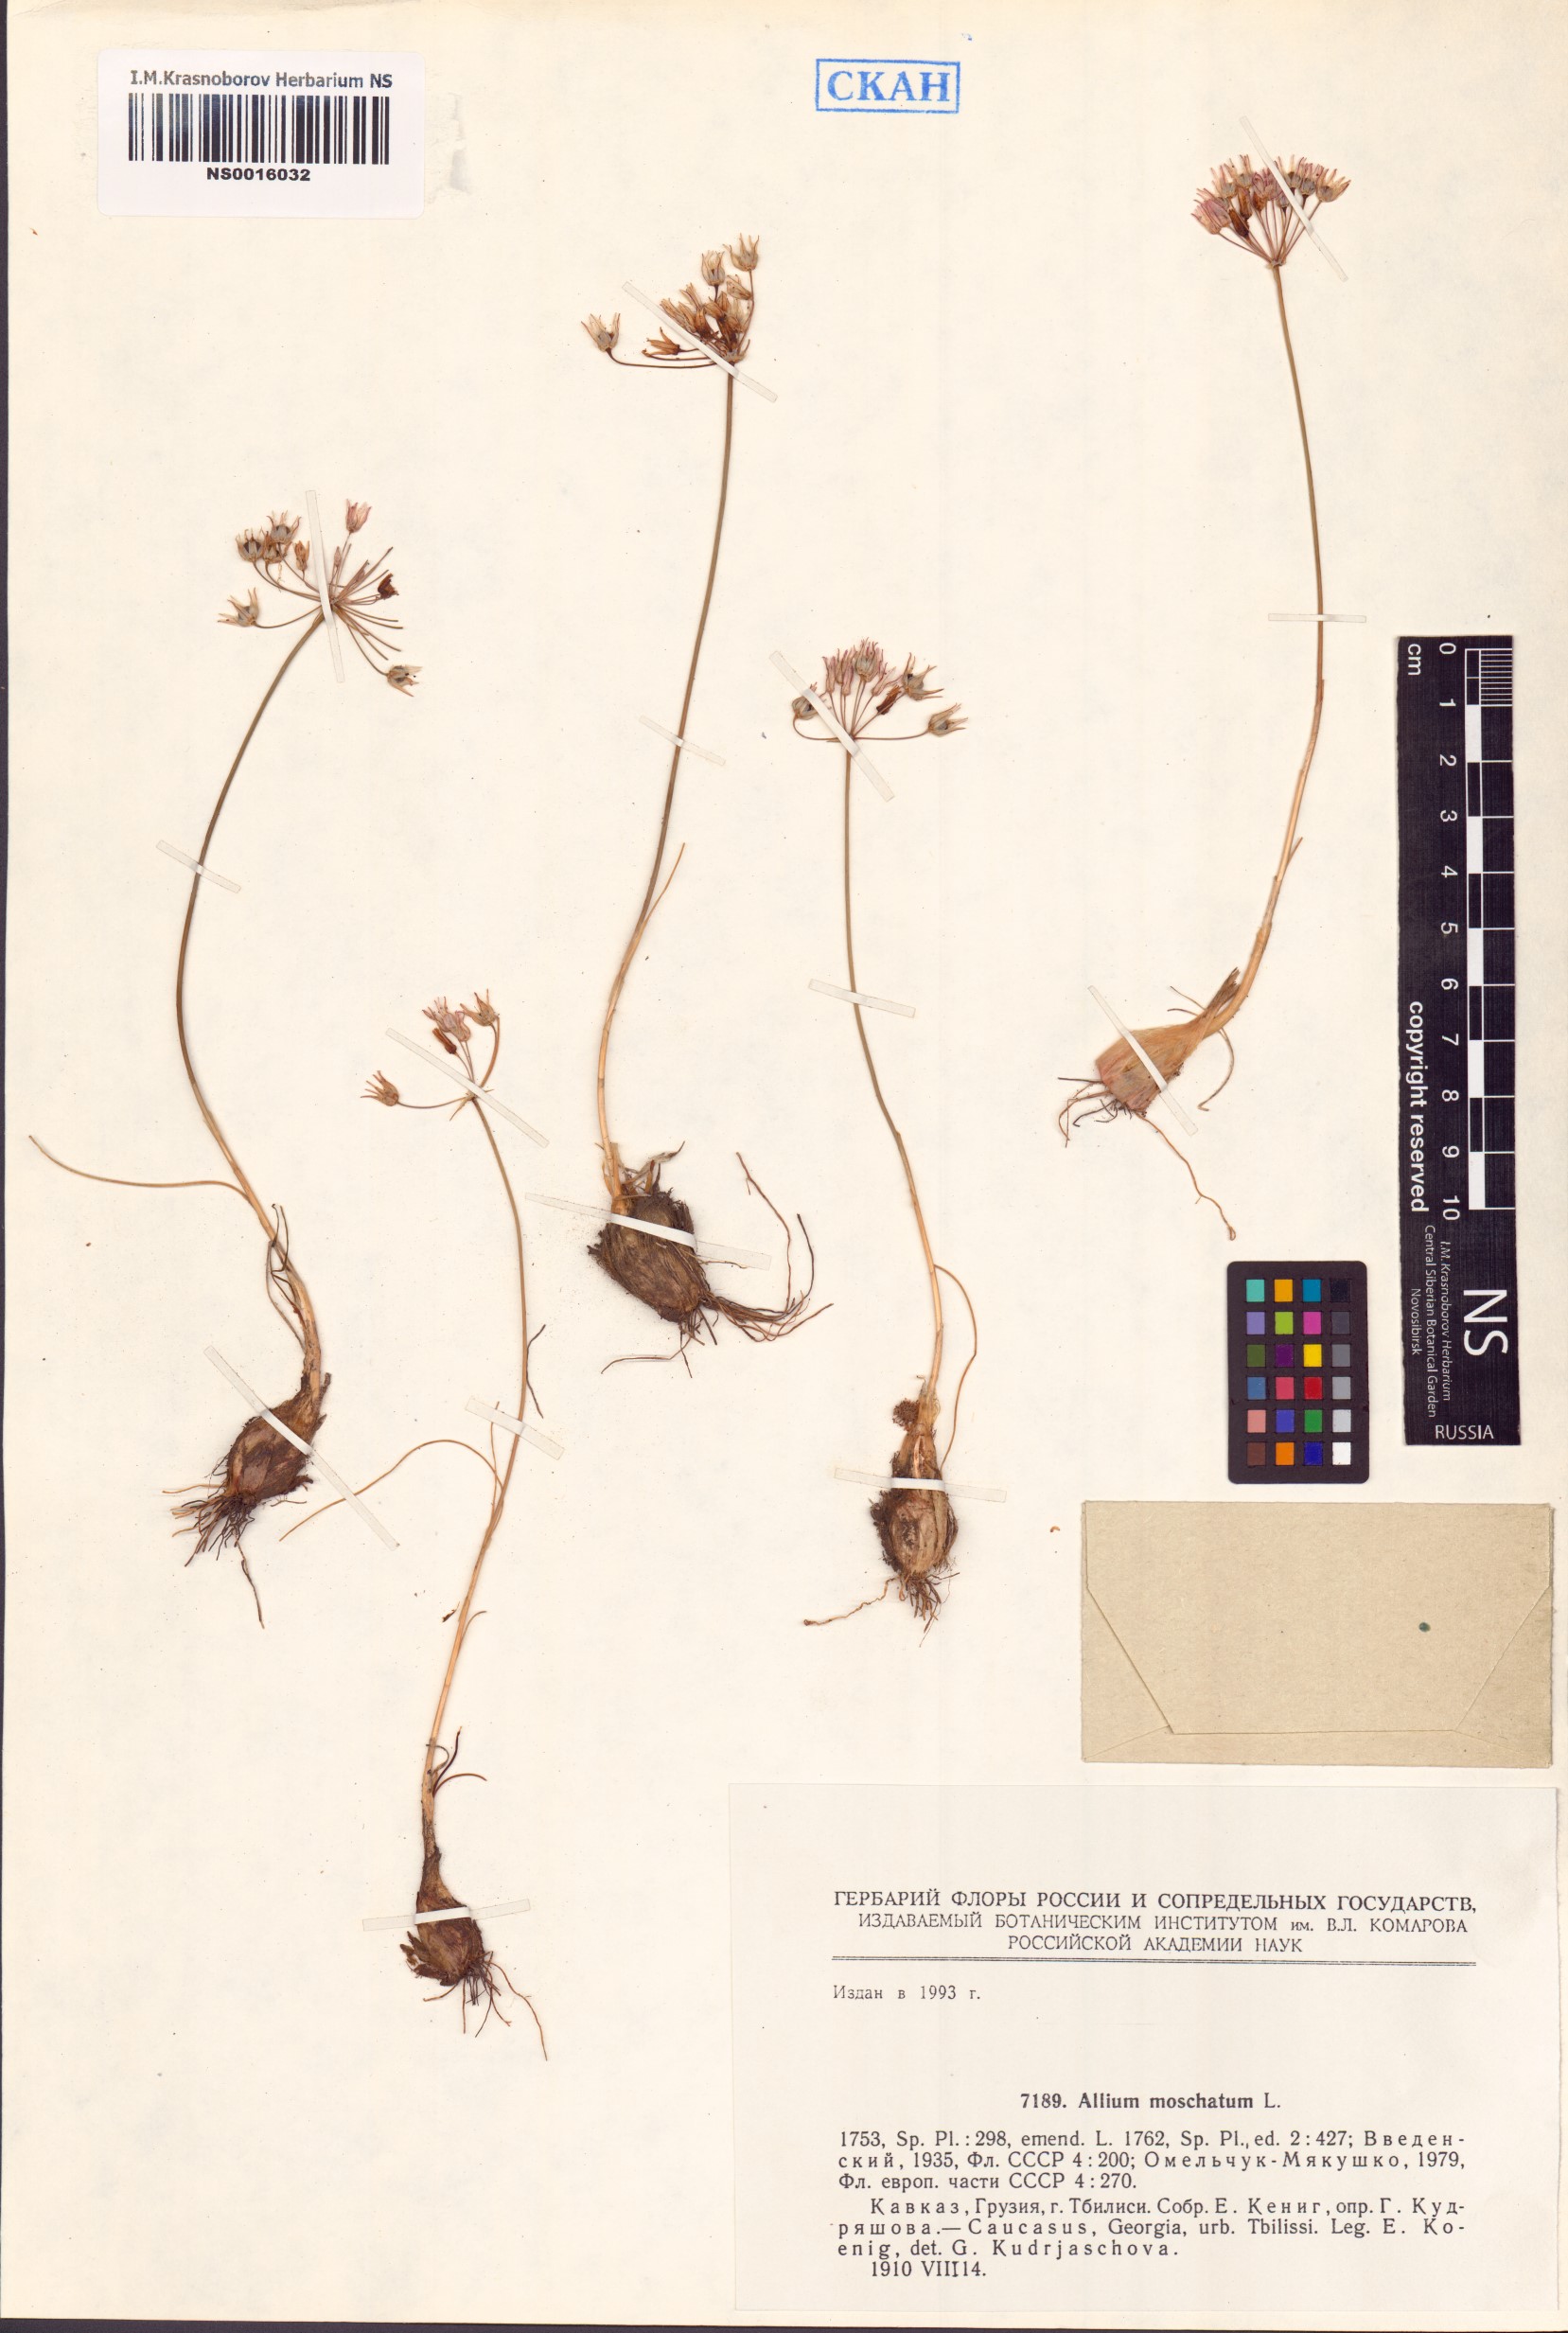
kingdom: Plantae
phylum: Tracheophyta
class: Liliopsida
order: Asparagales
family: Amaryllidaceae
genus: Allium
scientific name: Allium moschatum
